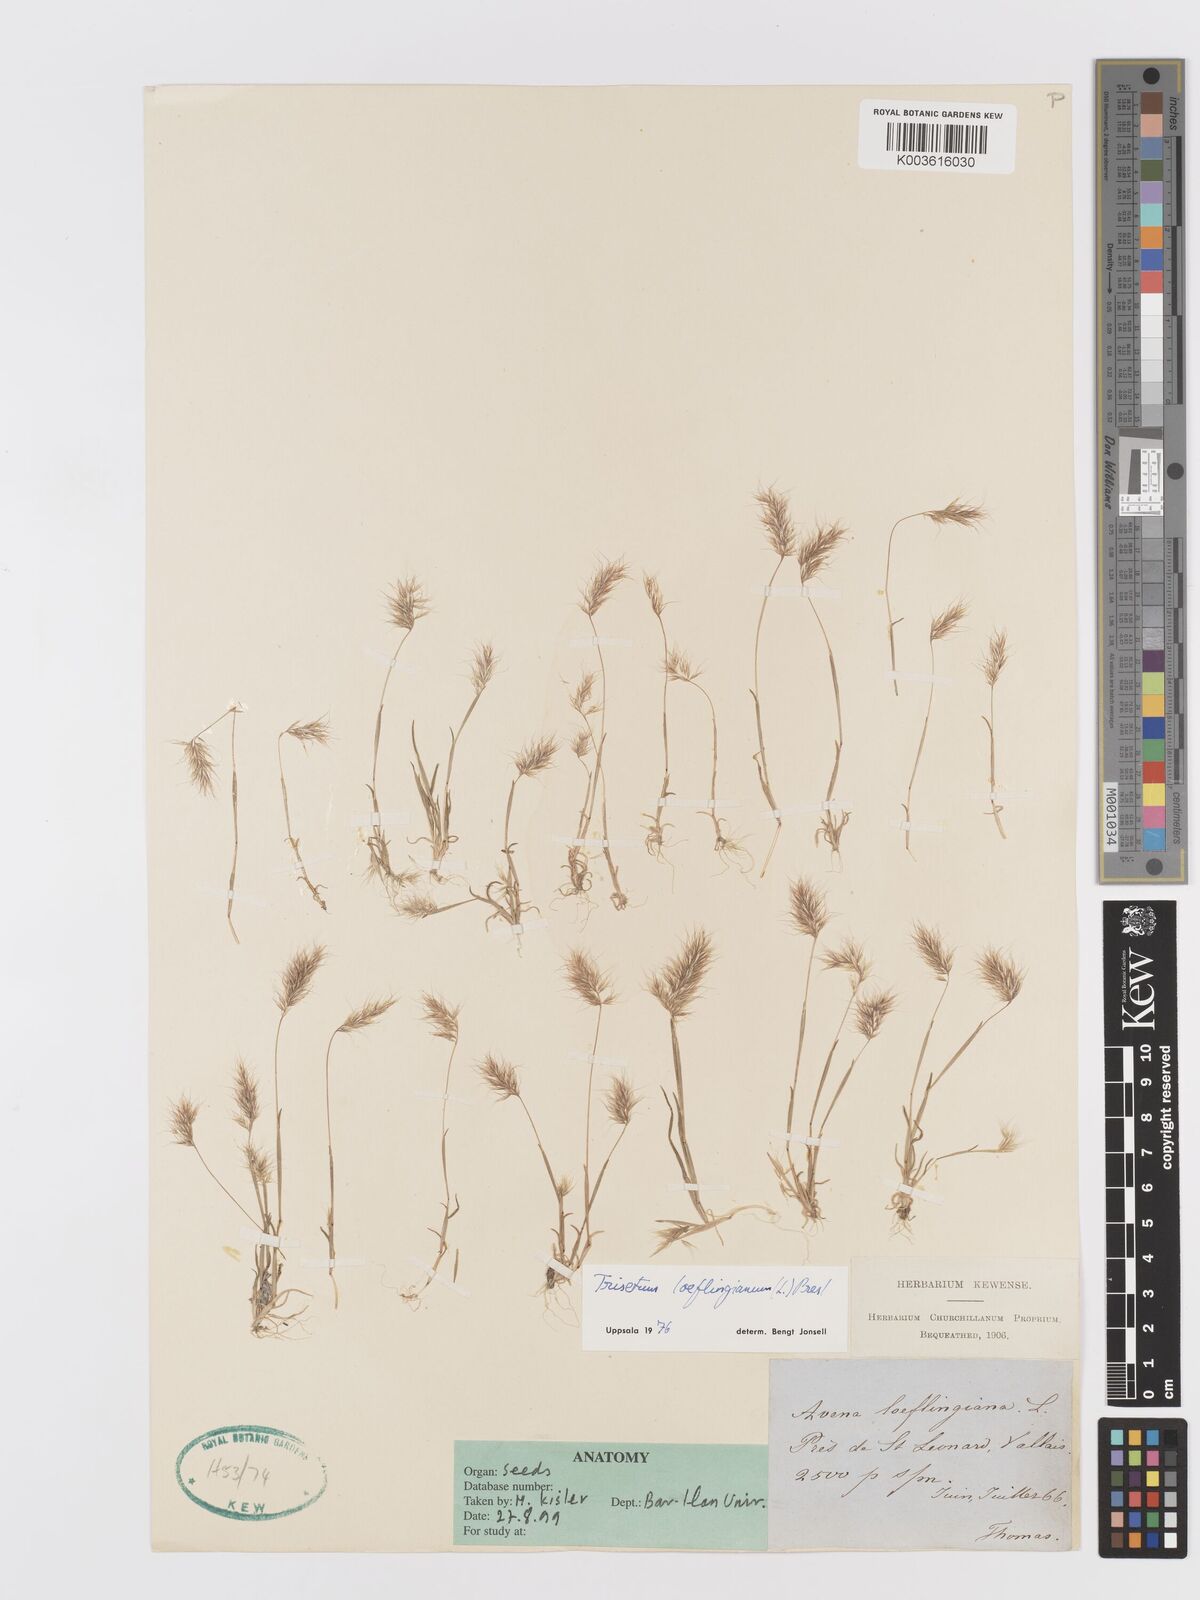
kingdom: Plantae
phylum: Tracheophyta
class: Liliopsida
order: Poales
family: Poaceae
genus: Trisetaria
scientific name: Trisetaria loeflingiana
